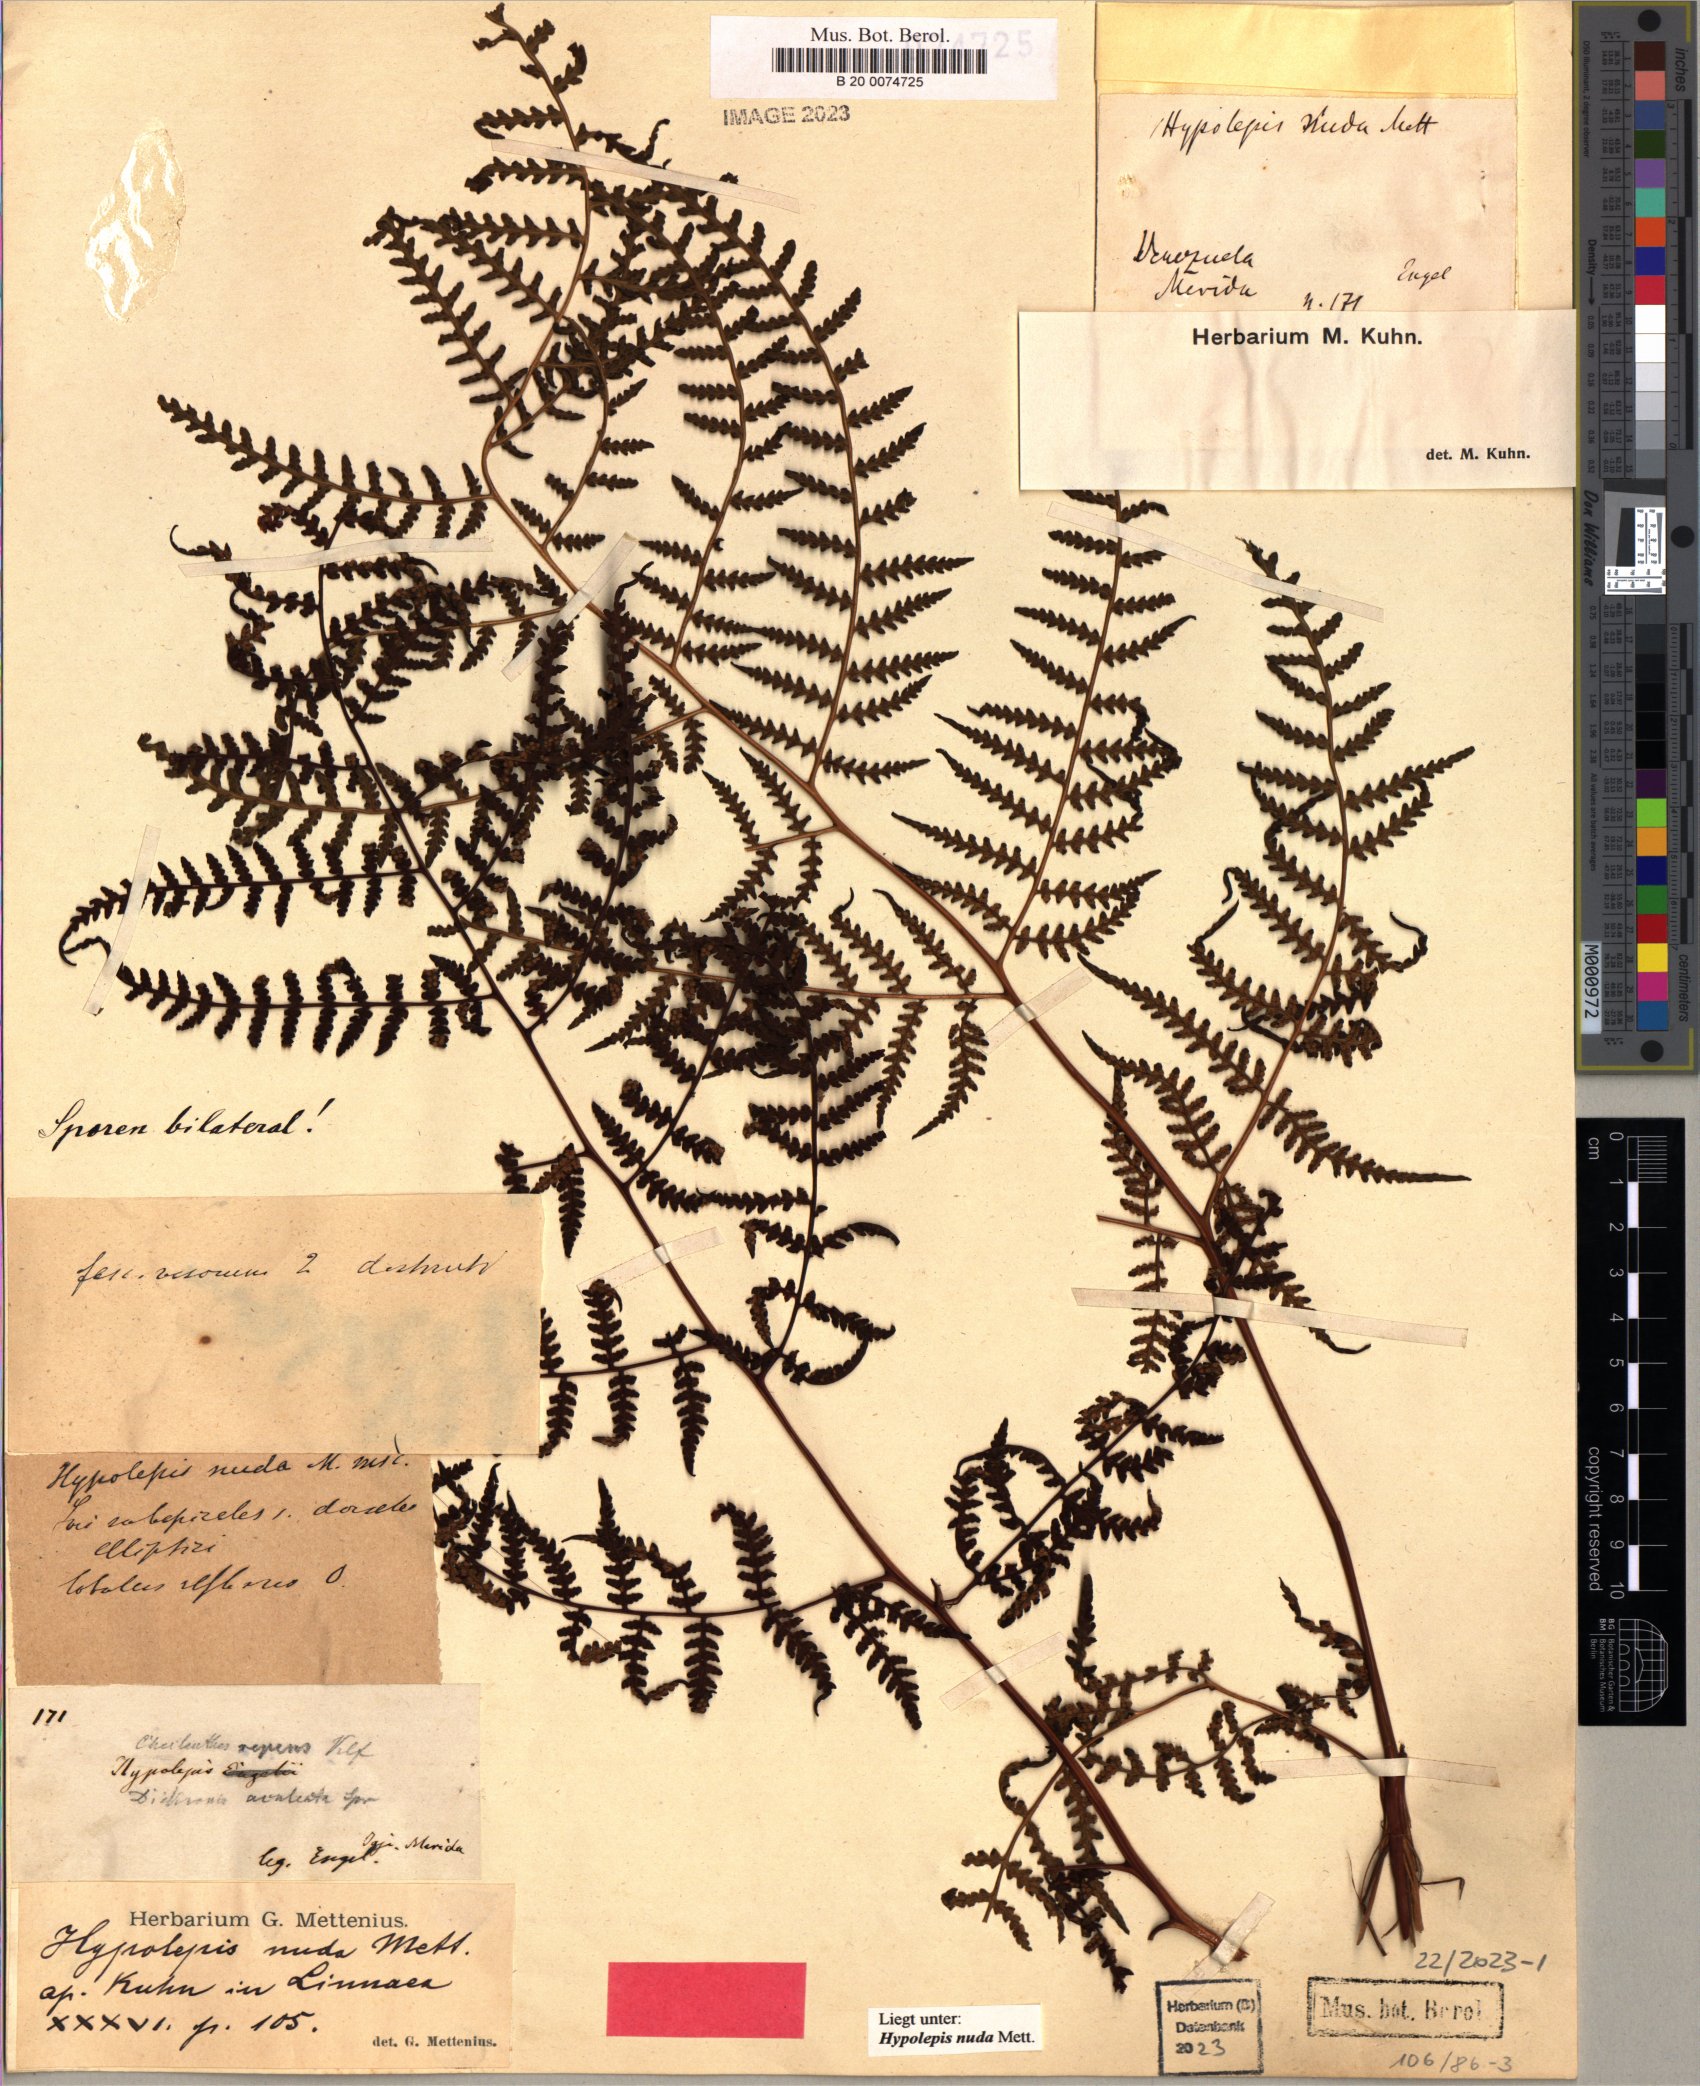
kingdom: Plantae
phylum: Tracheophyta
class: Polypodiopsida
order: Polypodiales
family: Dennstaedtiaceae
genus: Hypolepis
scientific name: Hypolepis nuda
